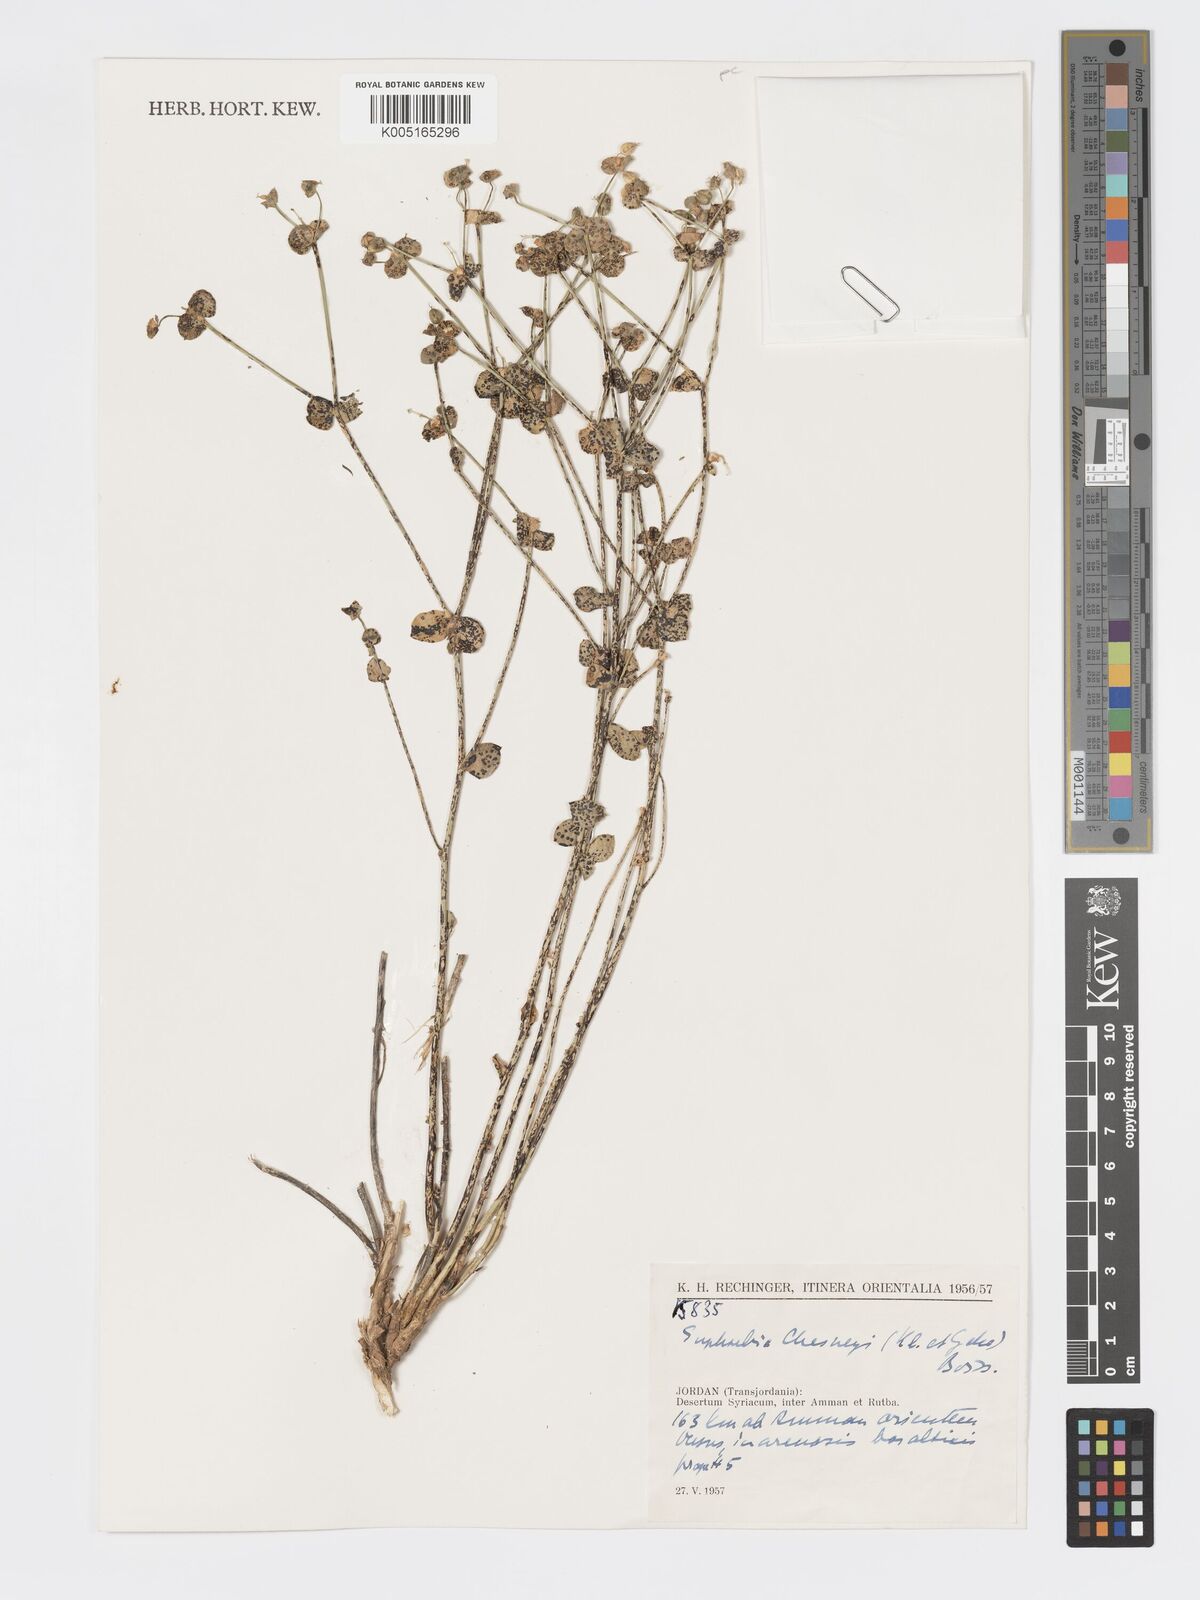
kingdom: Plantae
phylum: Tracheophyta
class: Magnoliopsida
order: Malpighiales
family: Euphorbiaceae
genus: Euphorbia
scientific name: Euphorbia
